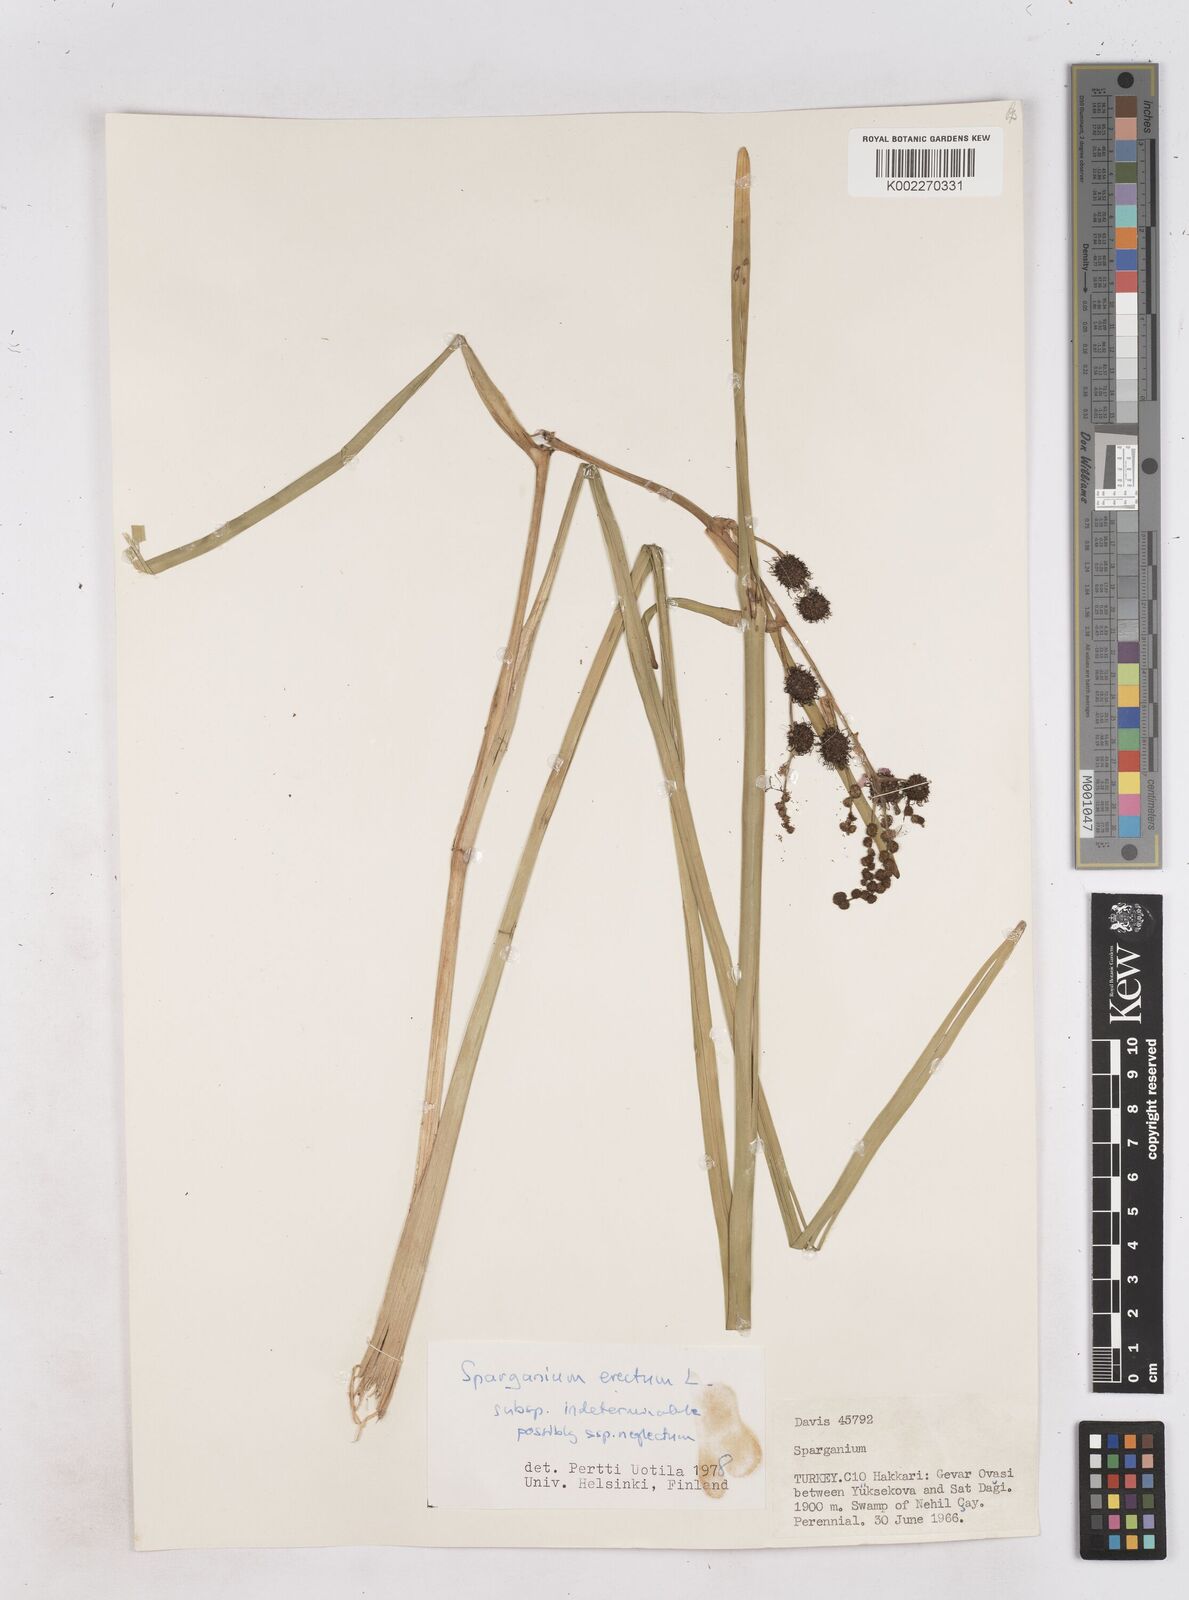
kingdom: Plantae
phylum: Tracheophyta
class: Liliopsida
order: Poales
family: Typhaceae
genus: Sparganium
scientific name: Sparganium erectum
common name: Branched bur-reed
